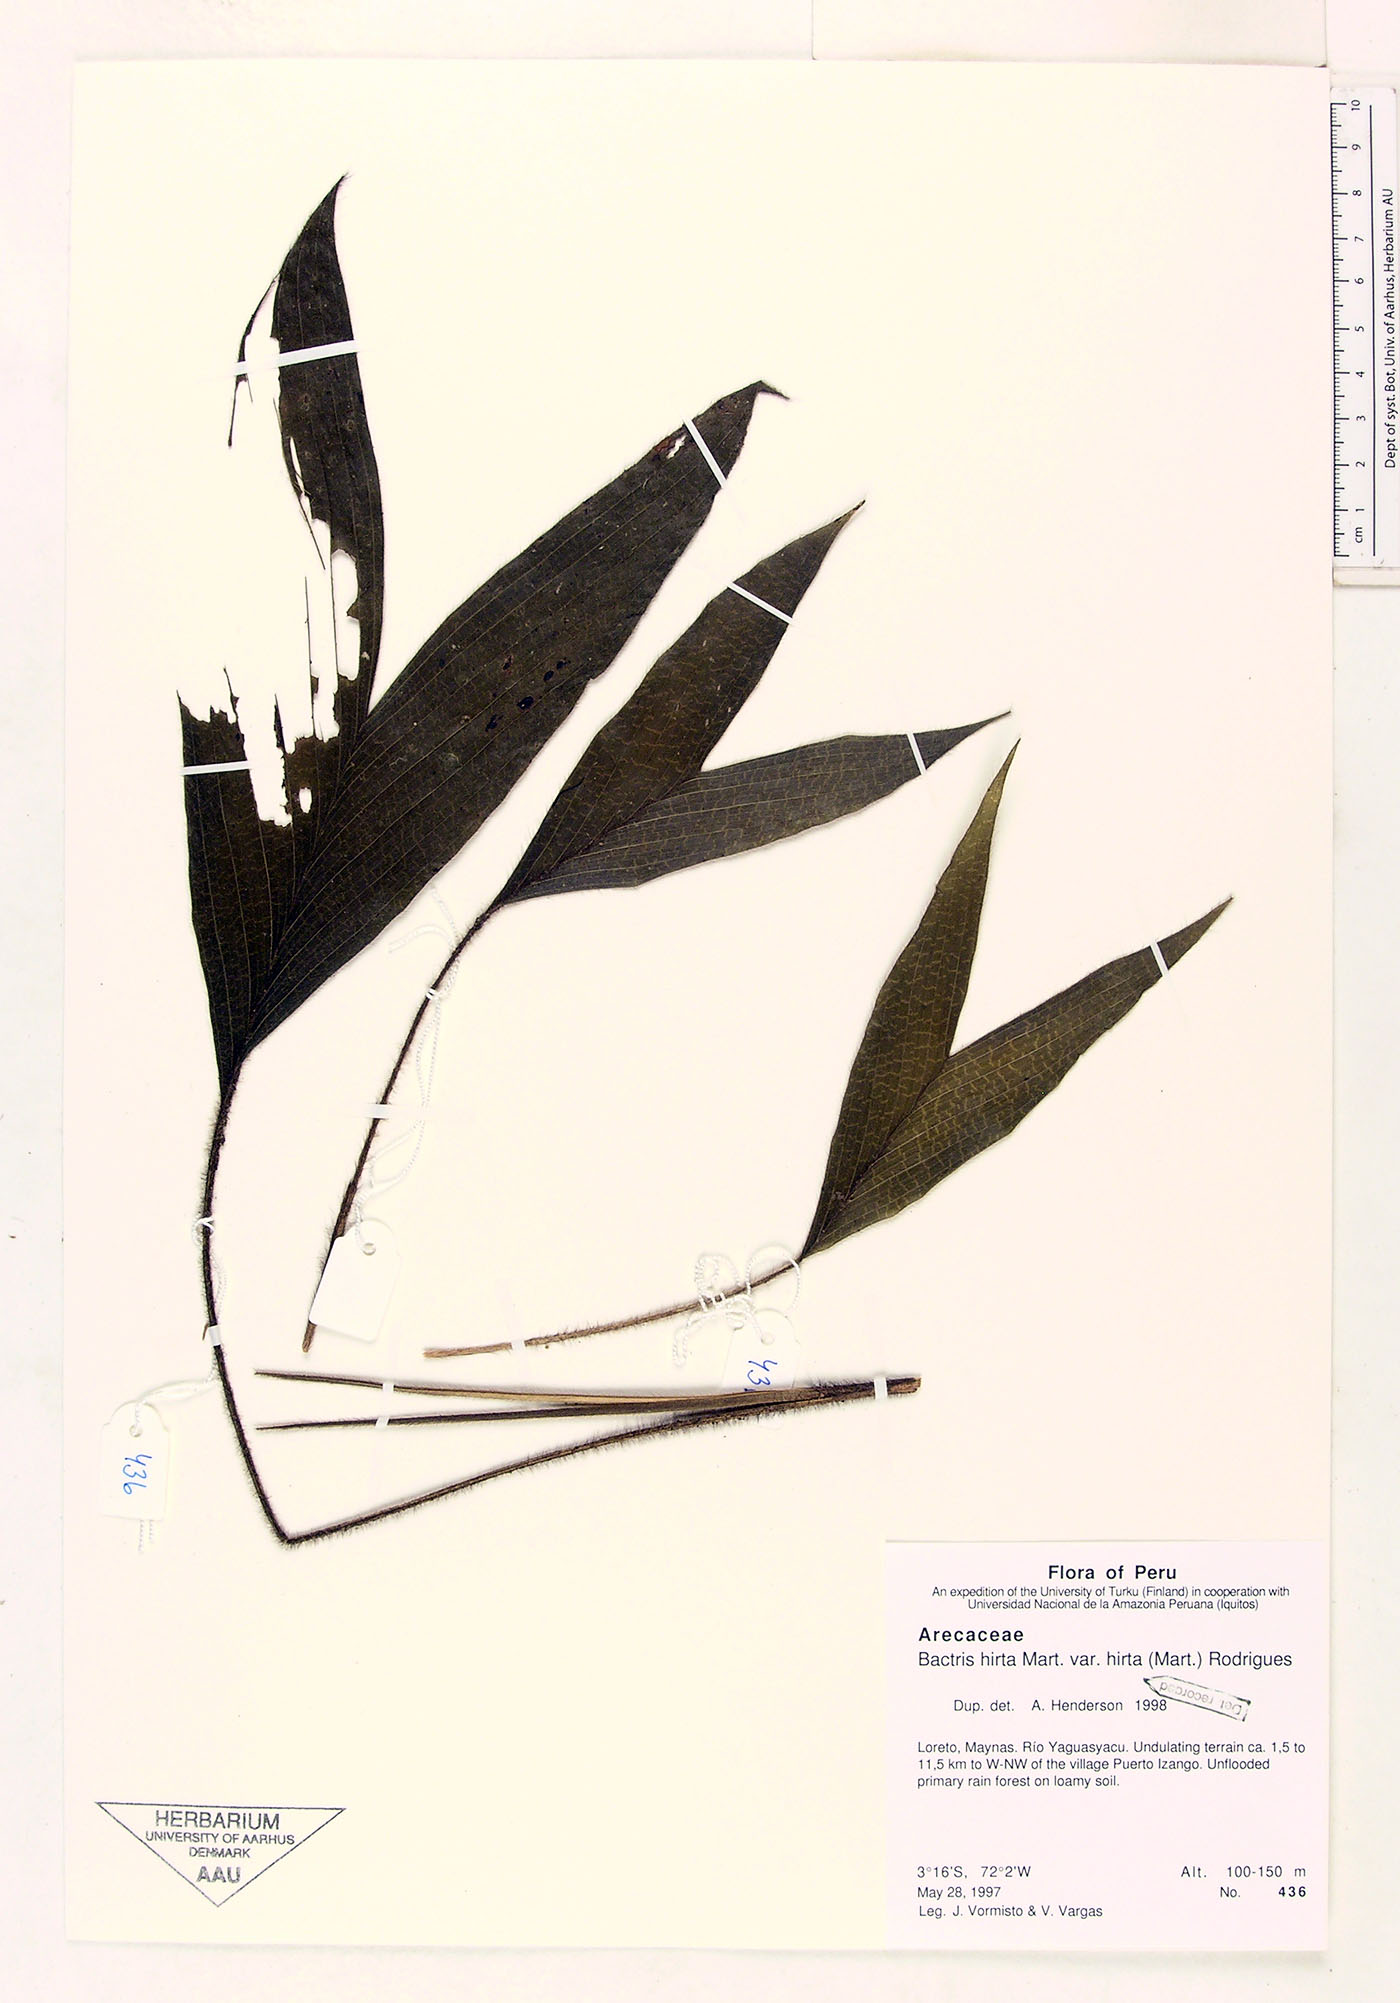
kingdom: Plantae
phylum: Tracheophyta
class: Liliopsida
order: Arecales
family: Arecaceae
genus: Bactris
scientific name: Bactris hirta
